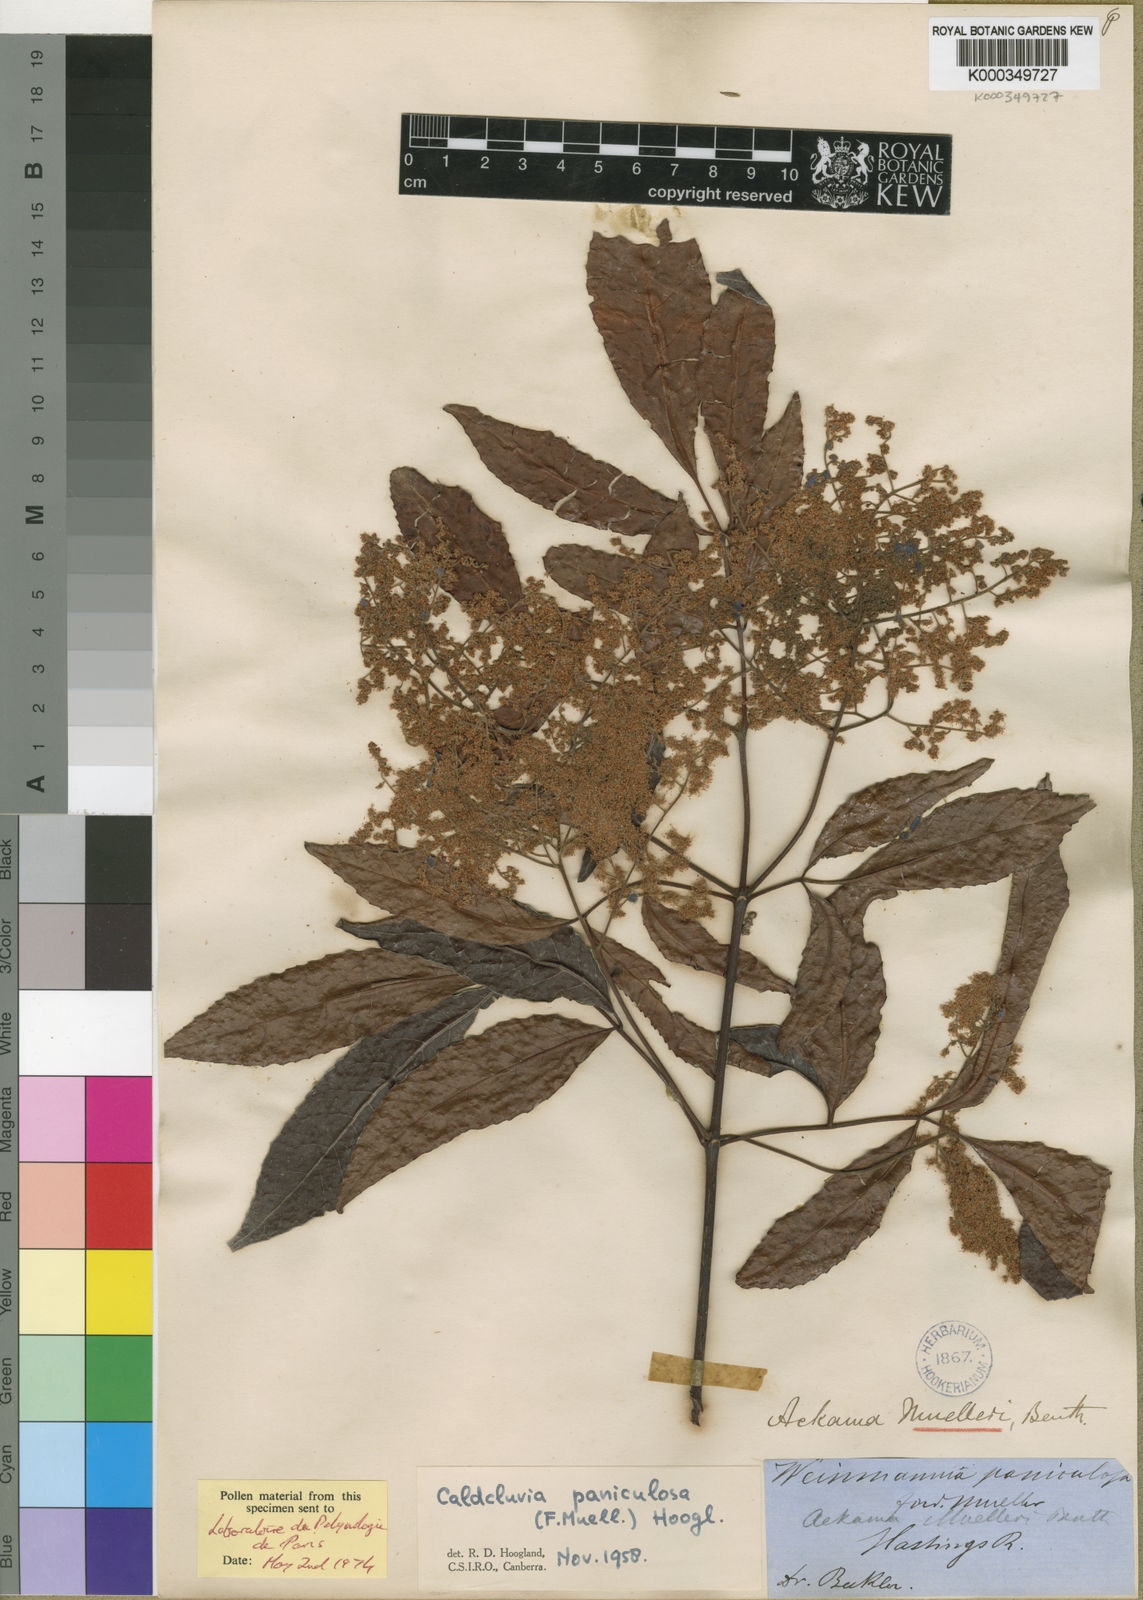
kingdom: Plantae
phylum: Tracheophyta
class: Magnoliopsida
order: Oxalidales
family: Cunoniaceae
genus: Ackama
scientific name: Ackama paniculosa
